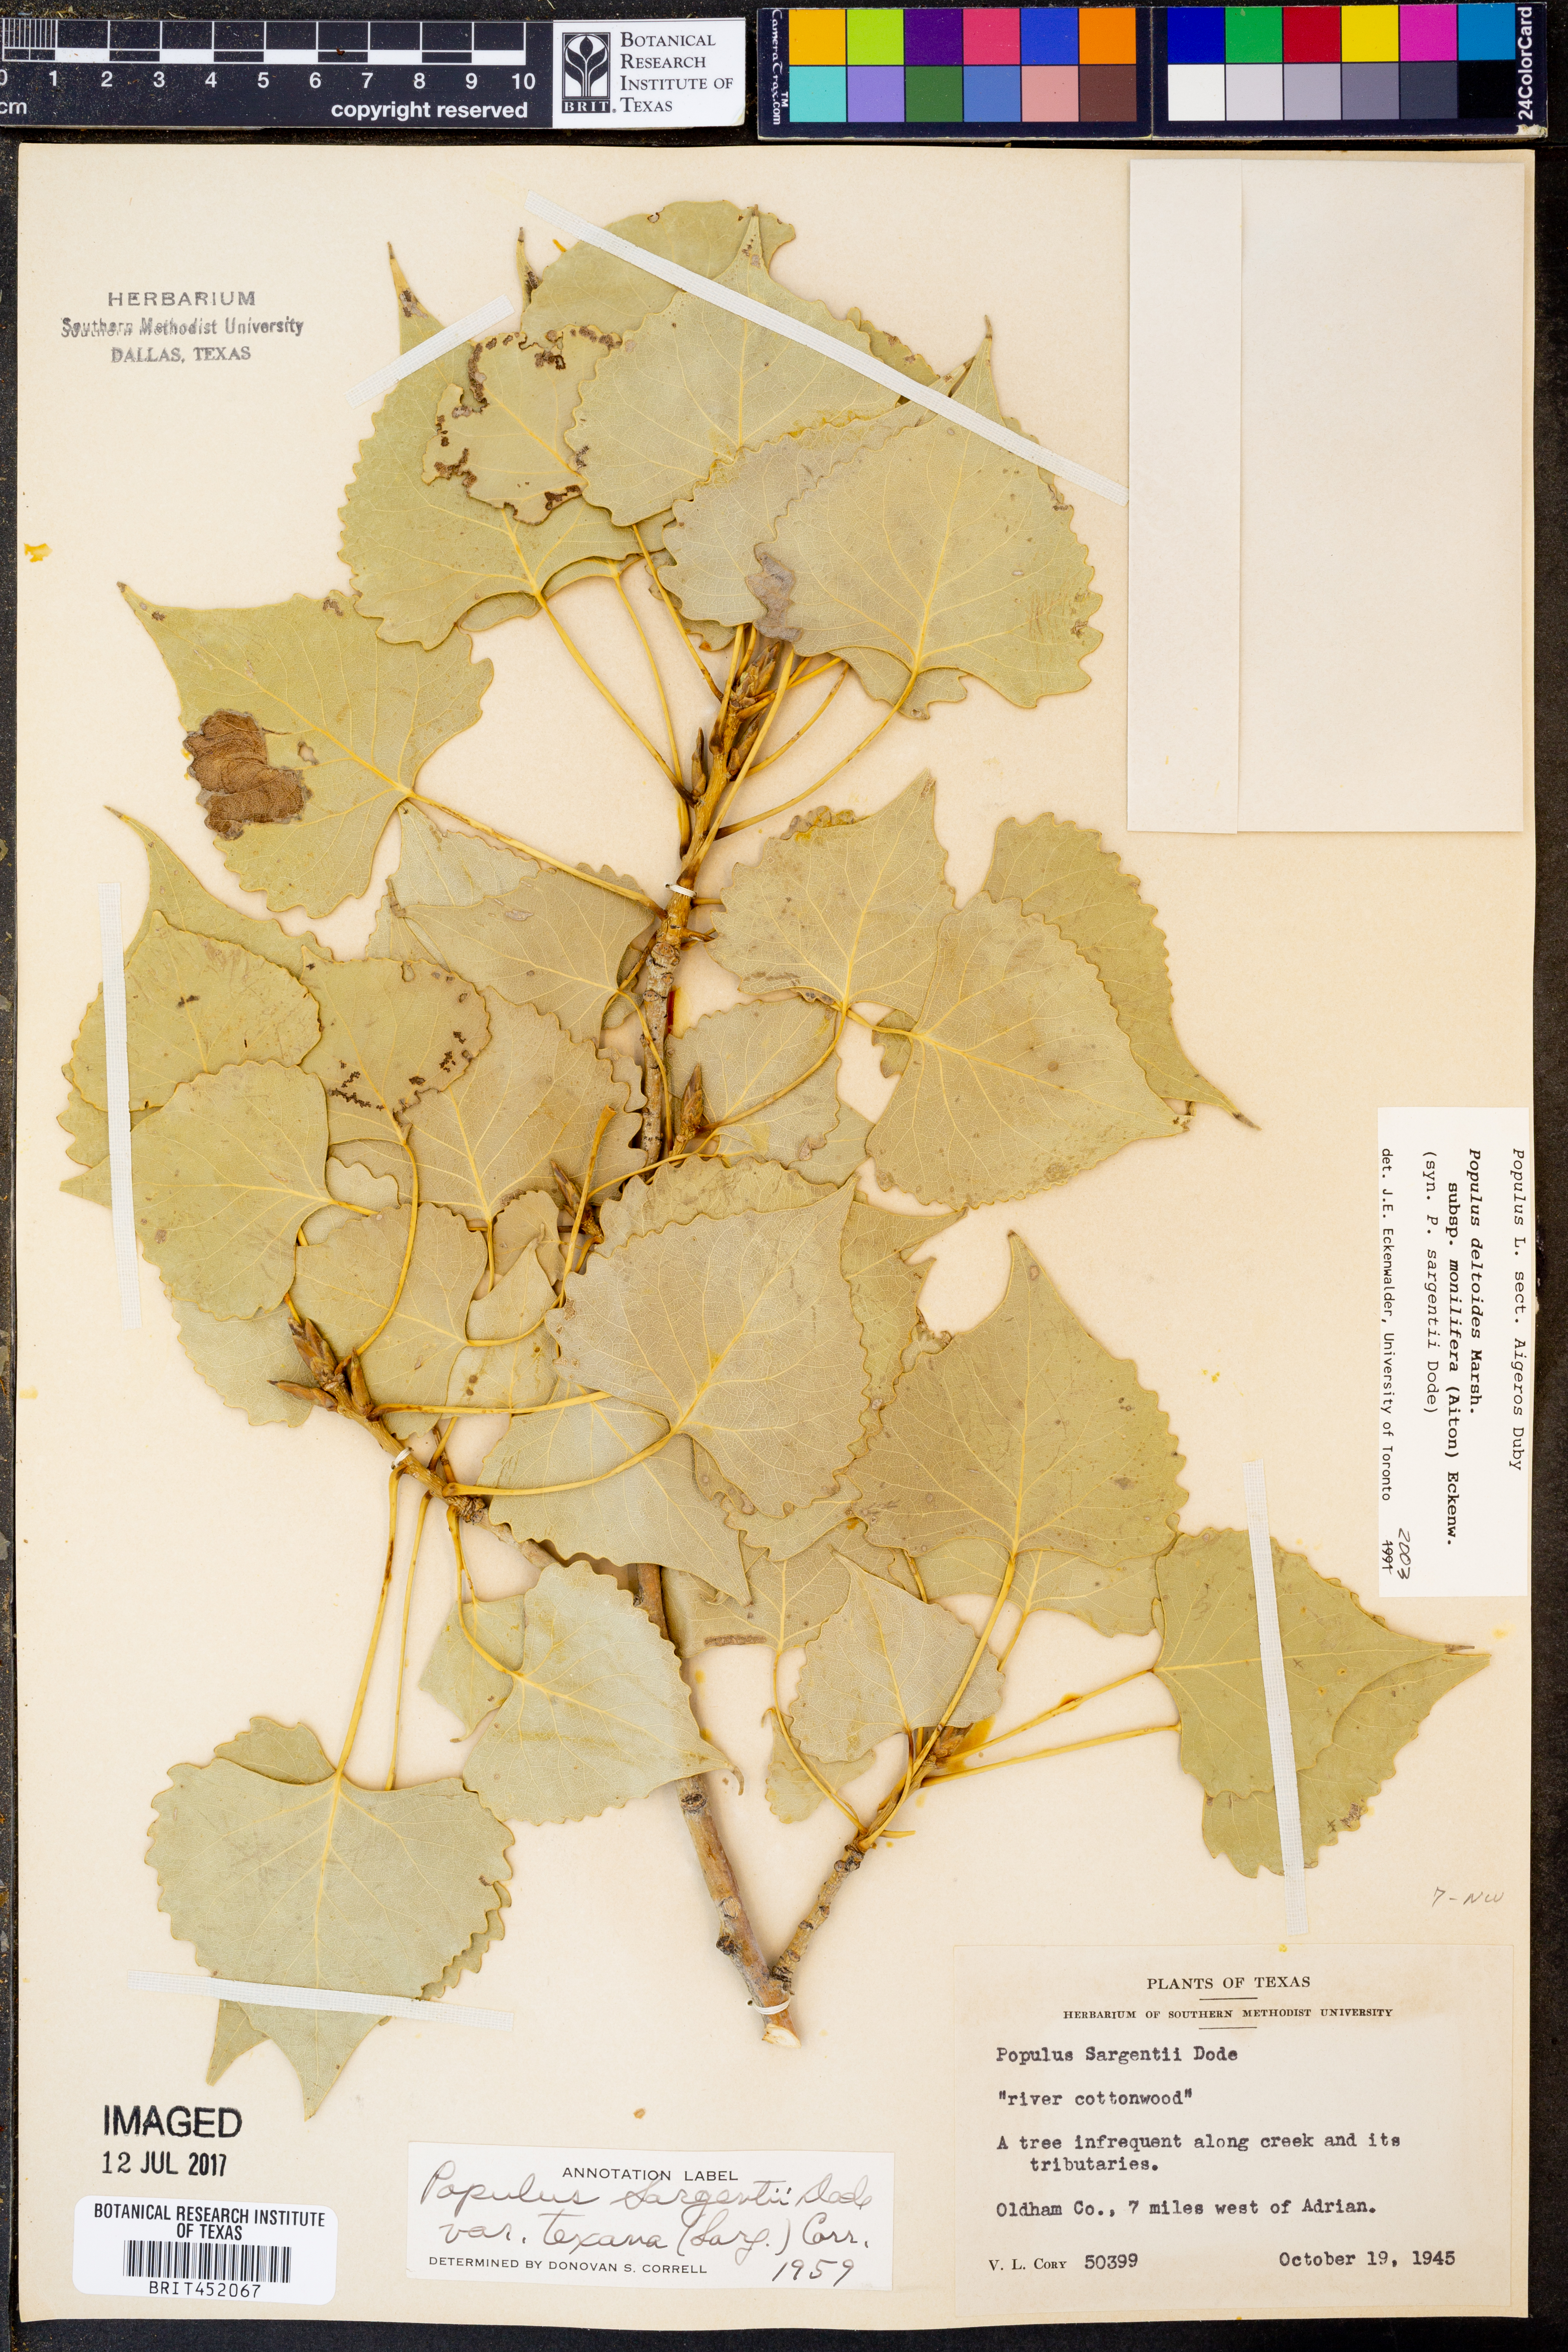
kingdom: Plantae
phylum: Tracheophyta
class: Magnoliopsida
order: Malpighiales
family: Salicaceae
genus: Populus
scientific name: Populus deltoides
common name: Eastern cottonwood
